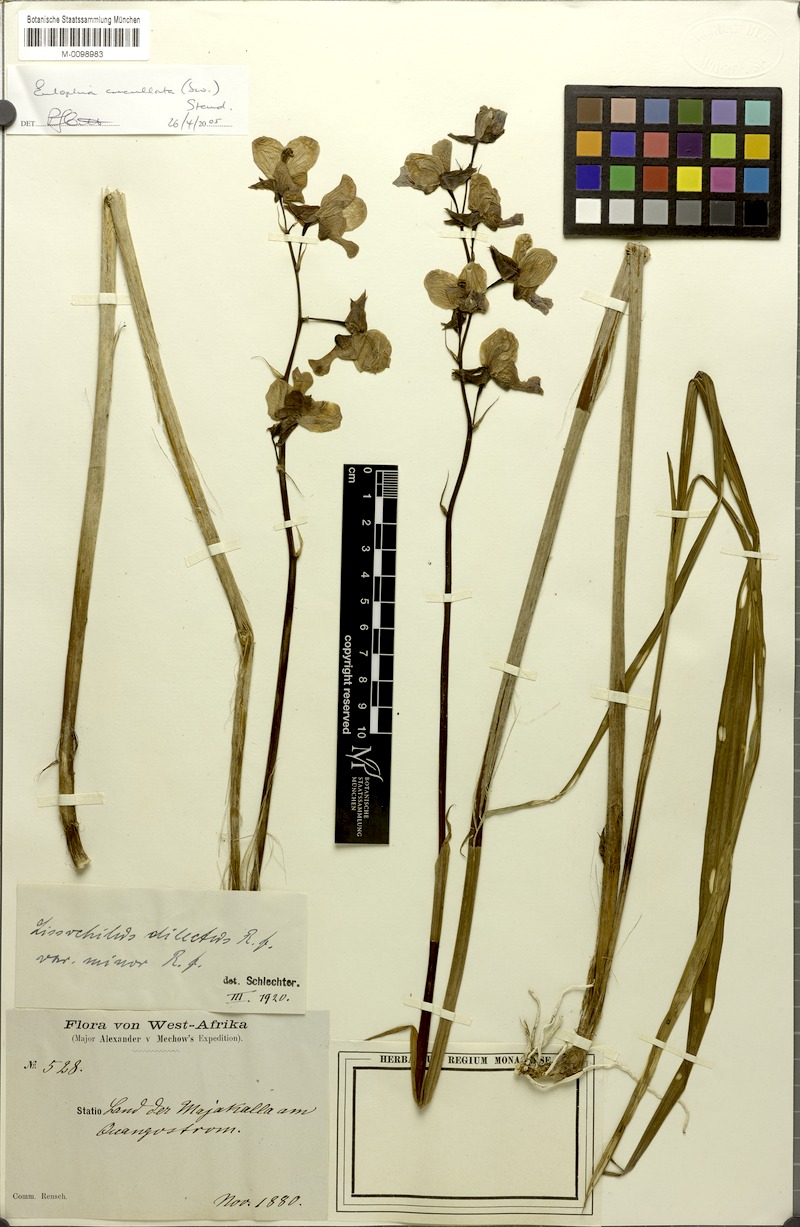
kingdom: Plantae
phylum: Tracheophyta
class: Liliopsida
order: Asparagales
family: Orchidaceae
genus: Eulophia
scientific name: Eulophia cucullata
